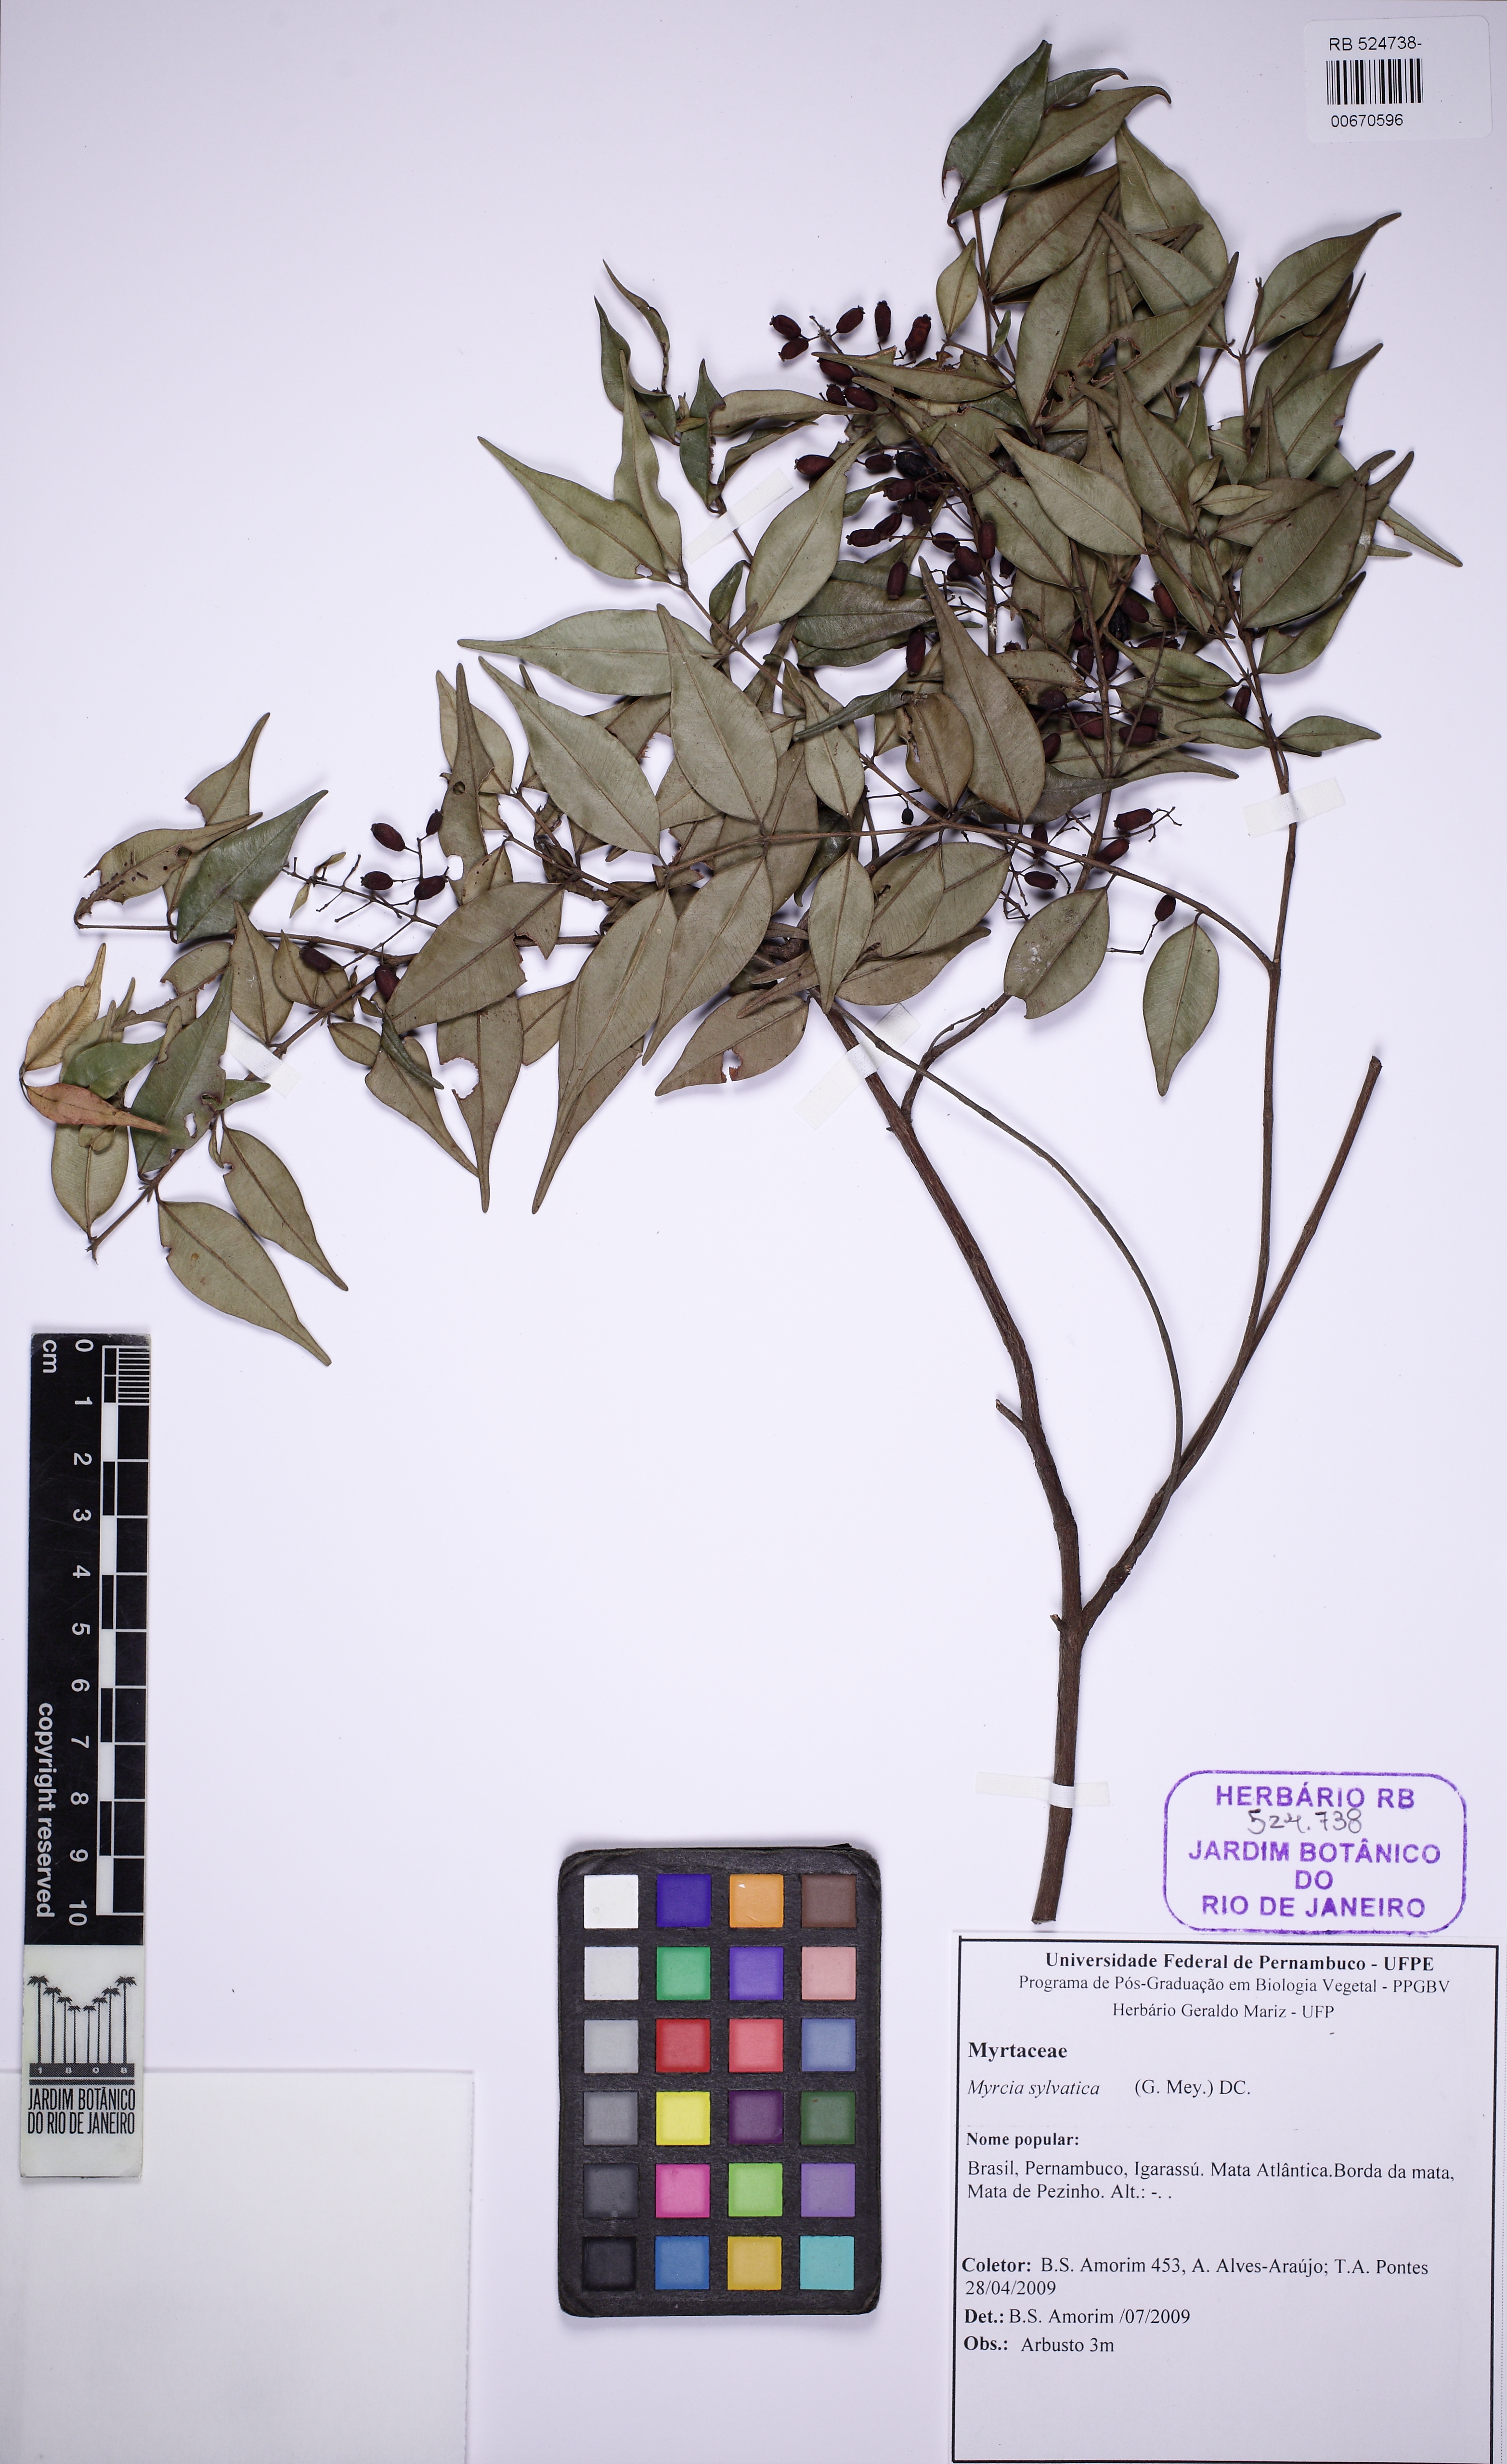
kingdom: Plantae
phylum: Tracheophyta
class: Magnoliopsida
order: Myrtales
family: Myrtaceae
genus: Myrcia
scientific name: Myrcia sylvatica
